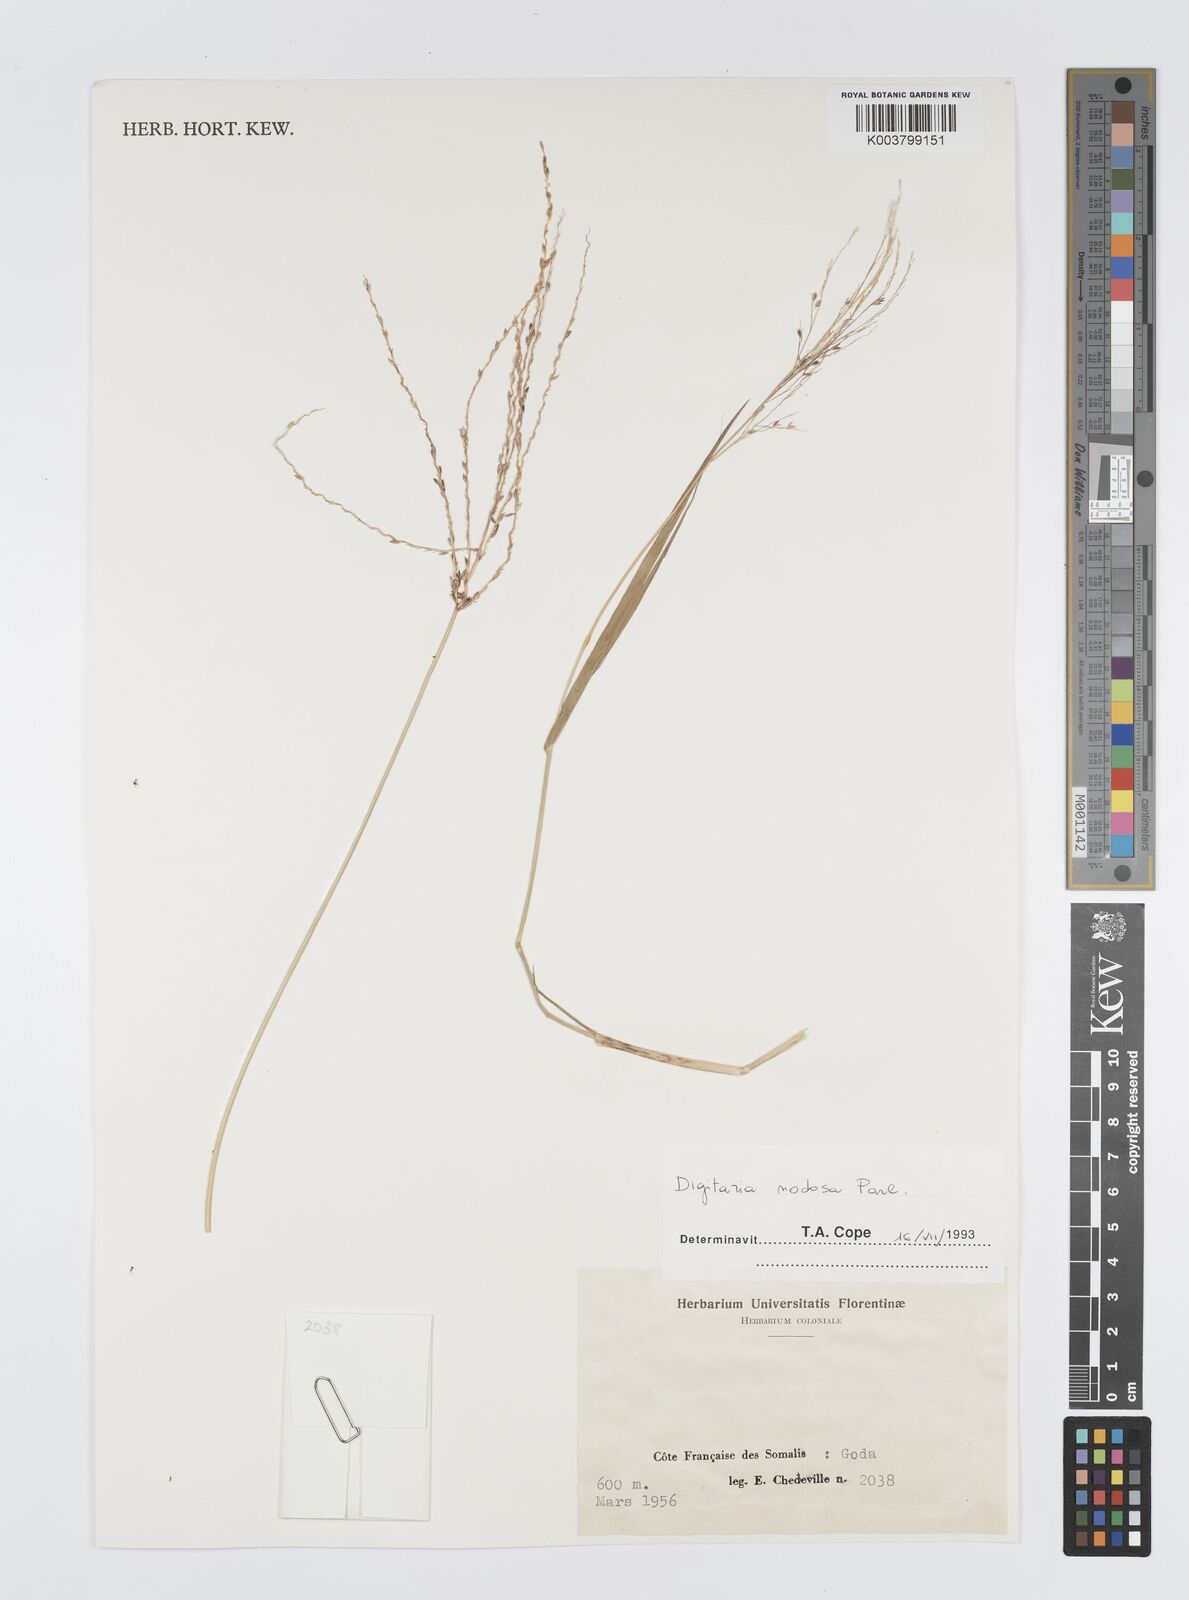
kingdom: Plantae
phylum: Tracheophyta
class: Liliopsida
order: Poales
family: Poaceae
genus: Digitaria
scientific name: Digitaria nodosa
